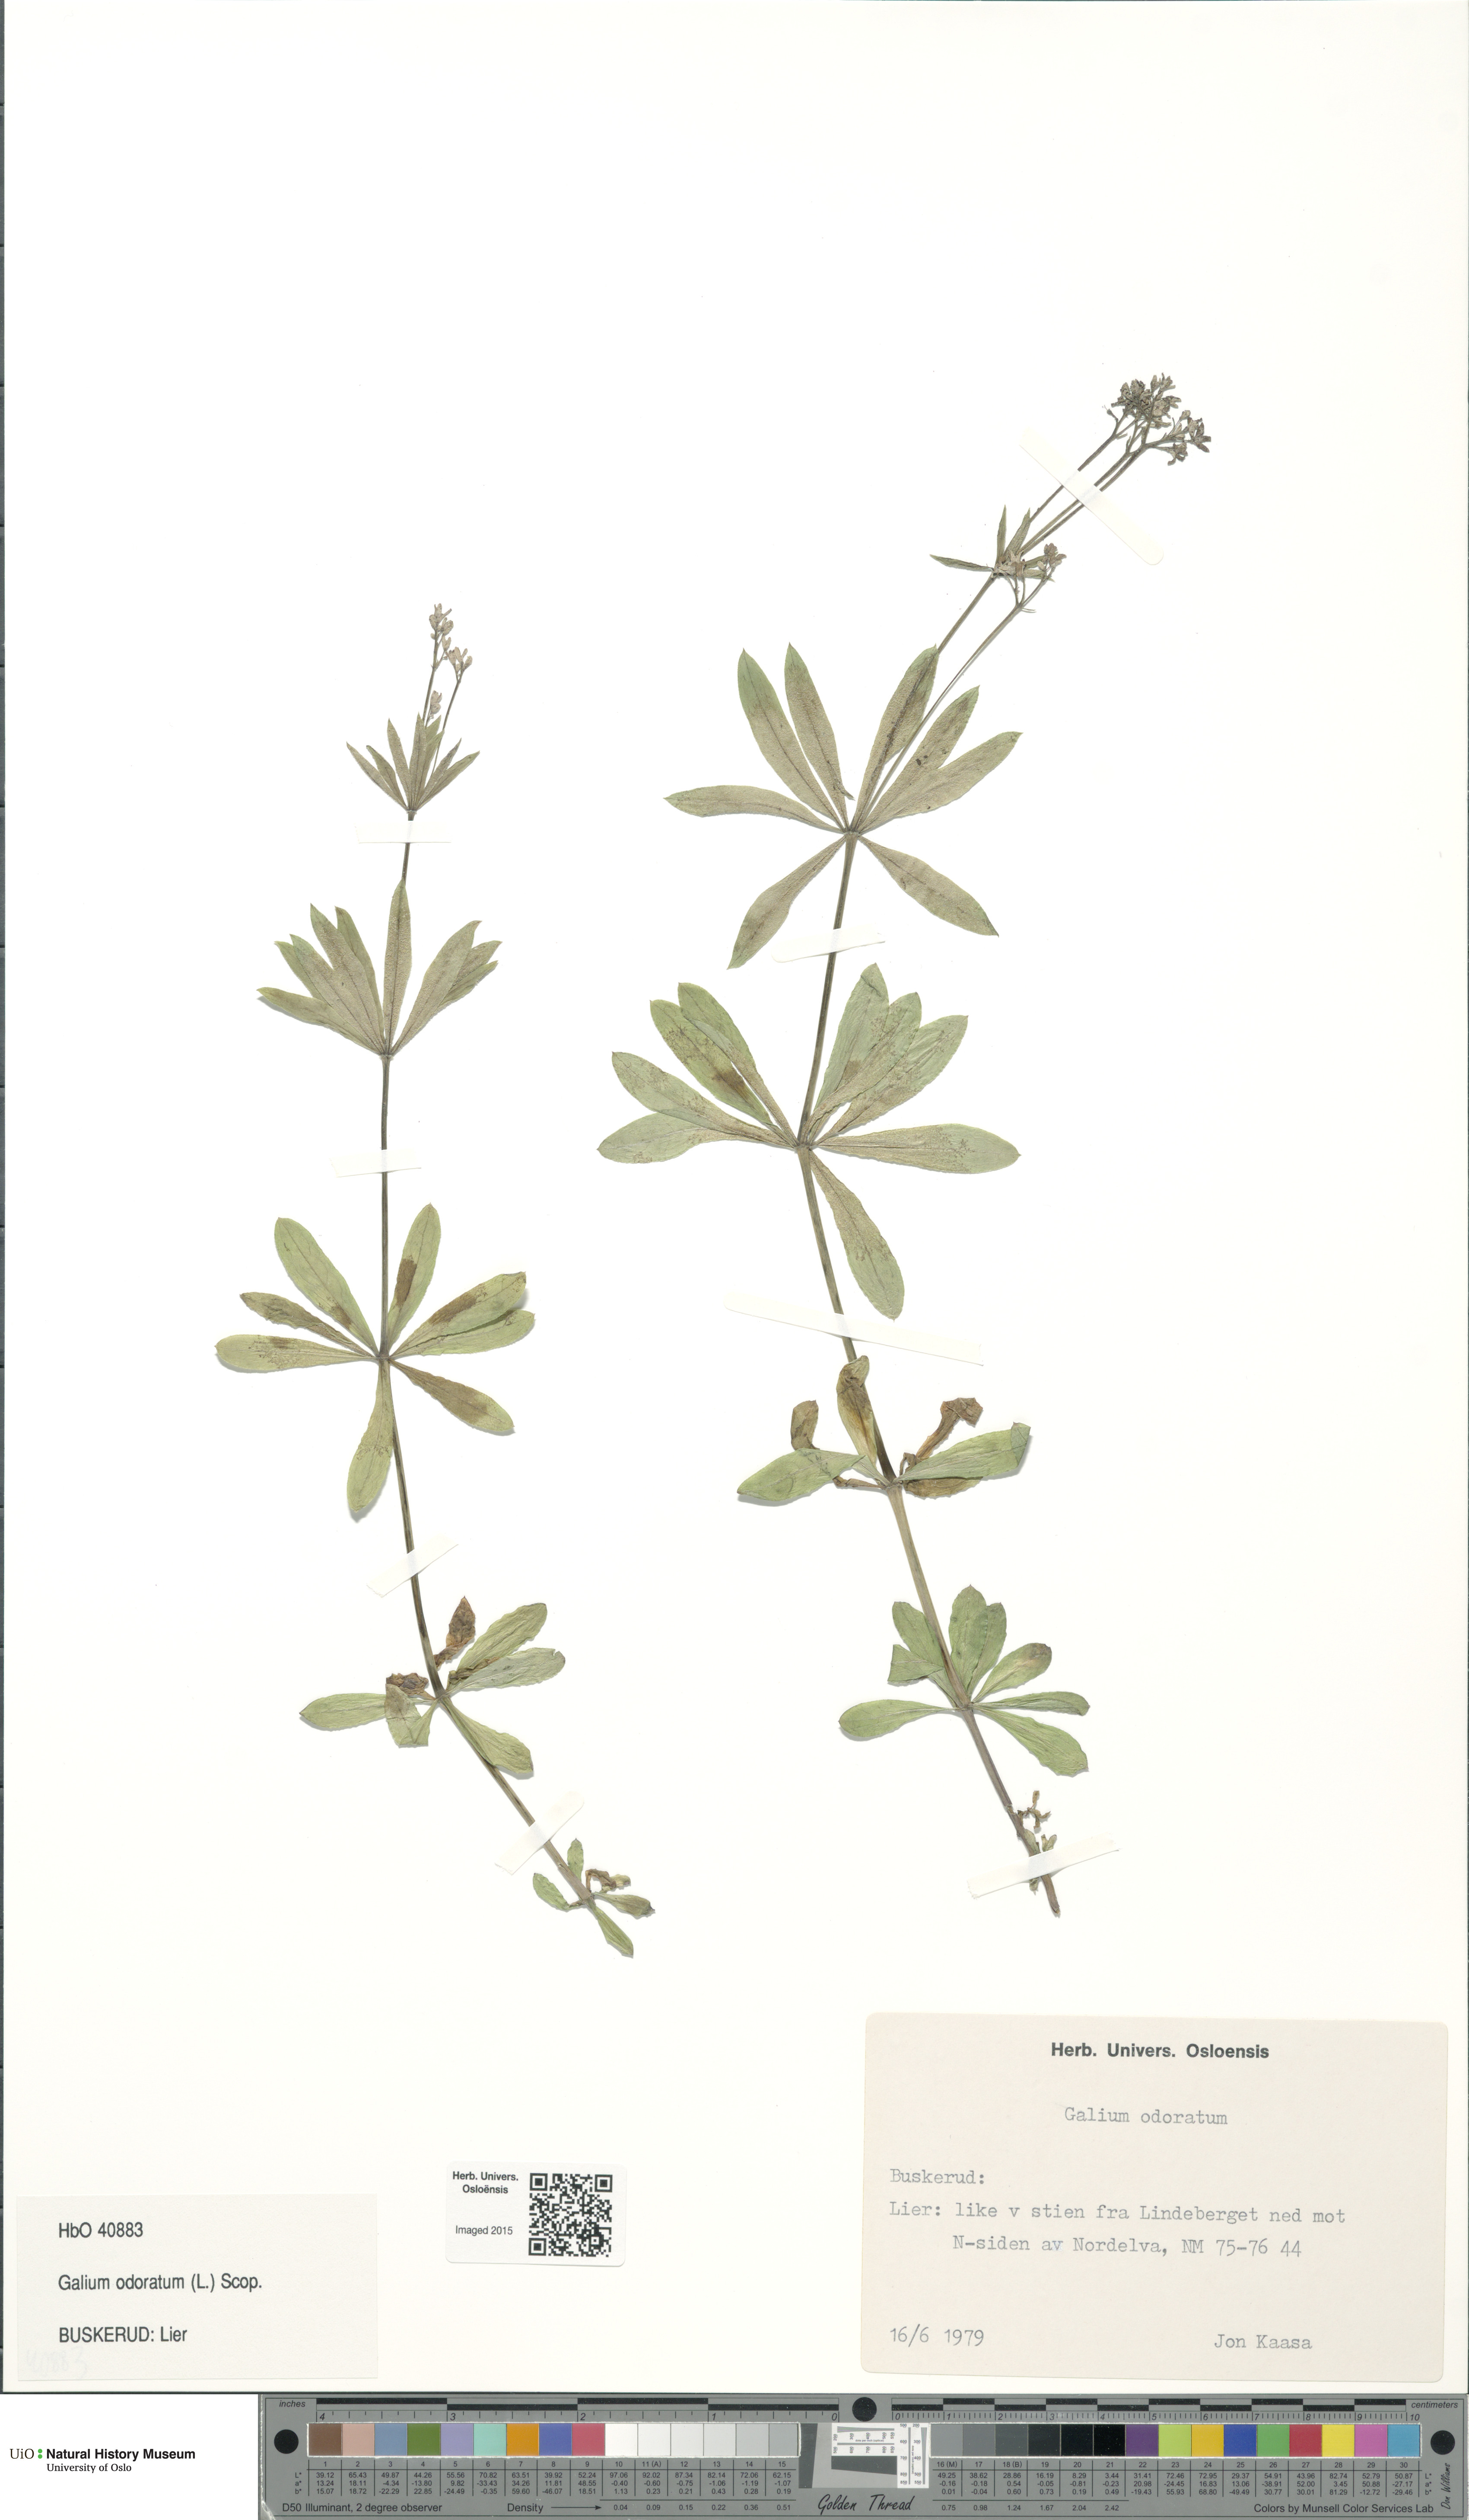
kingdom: Plantae
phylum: Tracheophyta
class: Magnoliopsida
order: Gentianales
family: Rubiaceae
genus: Galium
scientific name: Galium odoratum
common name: Sweet woodruff
